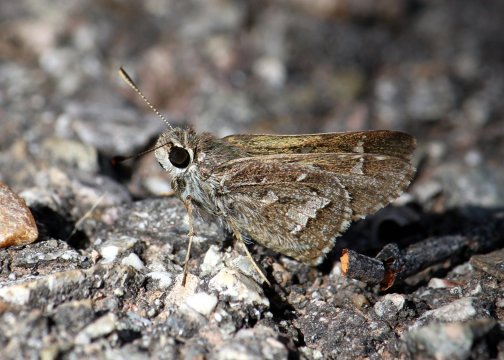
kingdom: Animalia
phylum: Arthropoda
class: Insecta
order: Lepidoptera
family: Hesperiidae
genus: Atrytonopsis
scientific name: Atrytonopsis python
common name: Cestus Skipper
